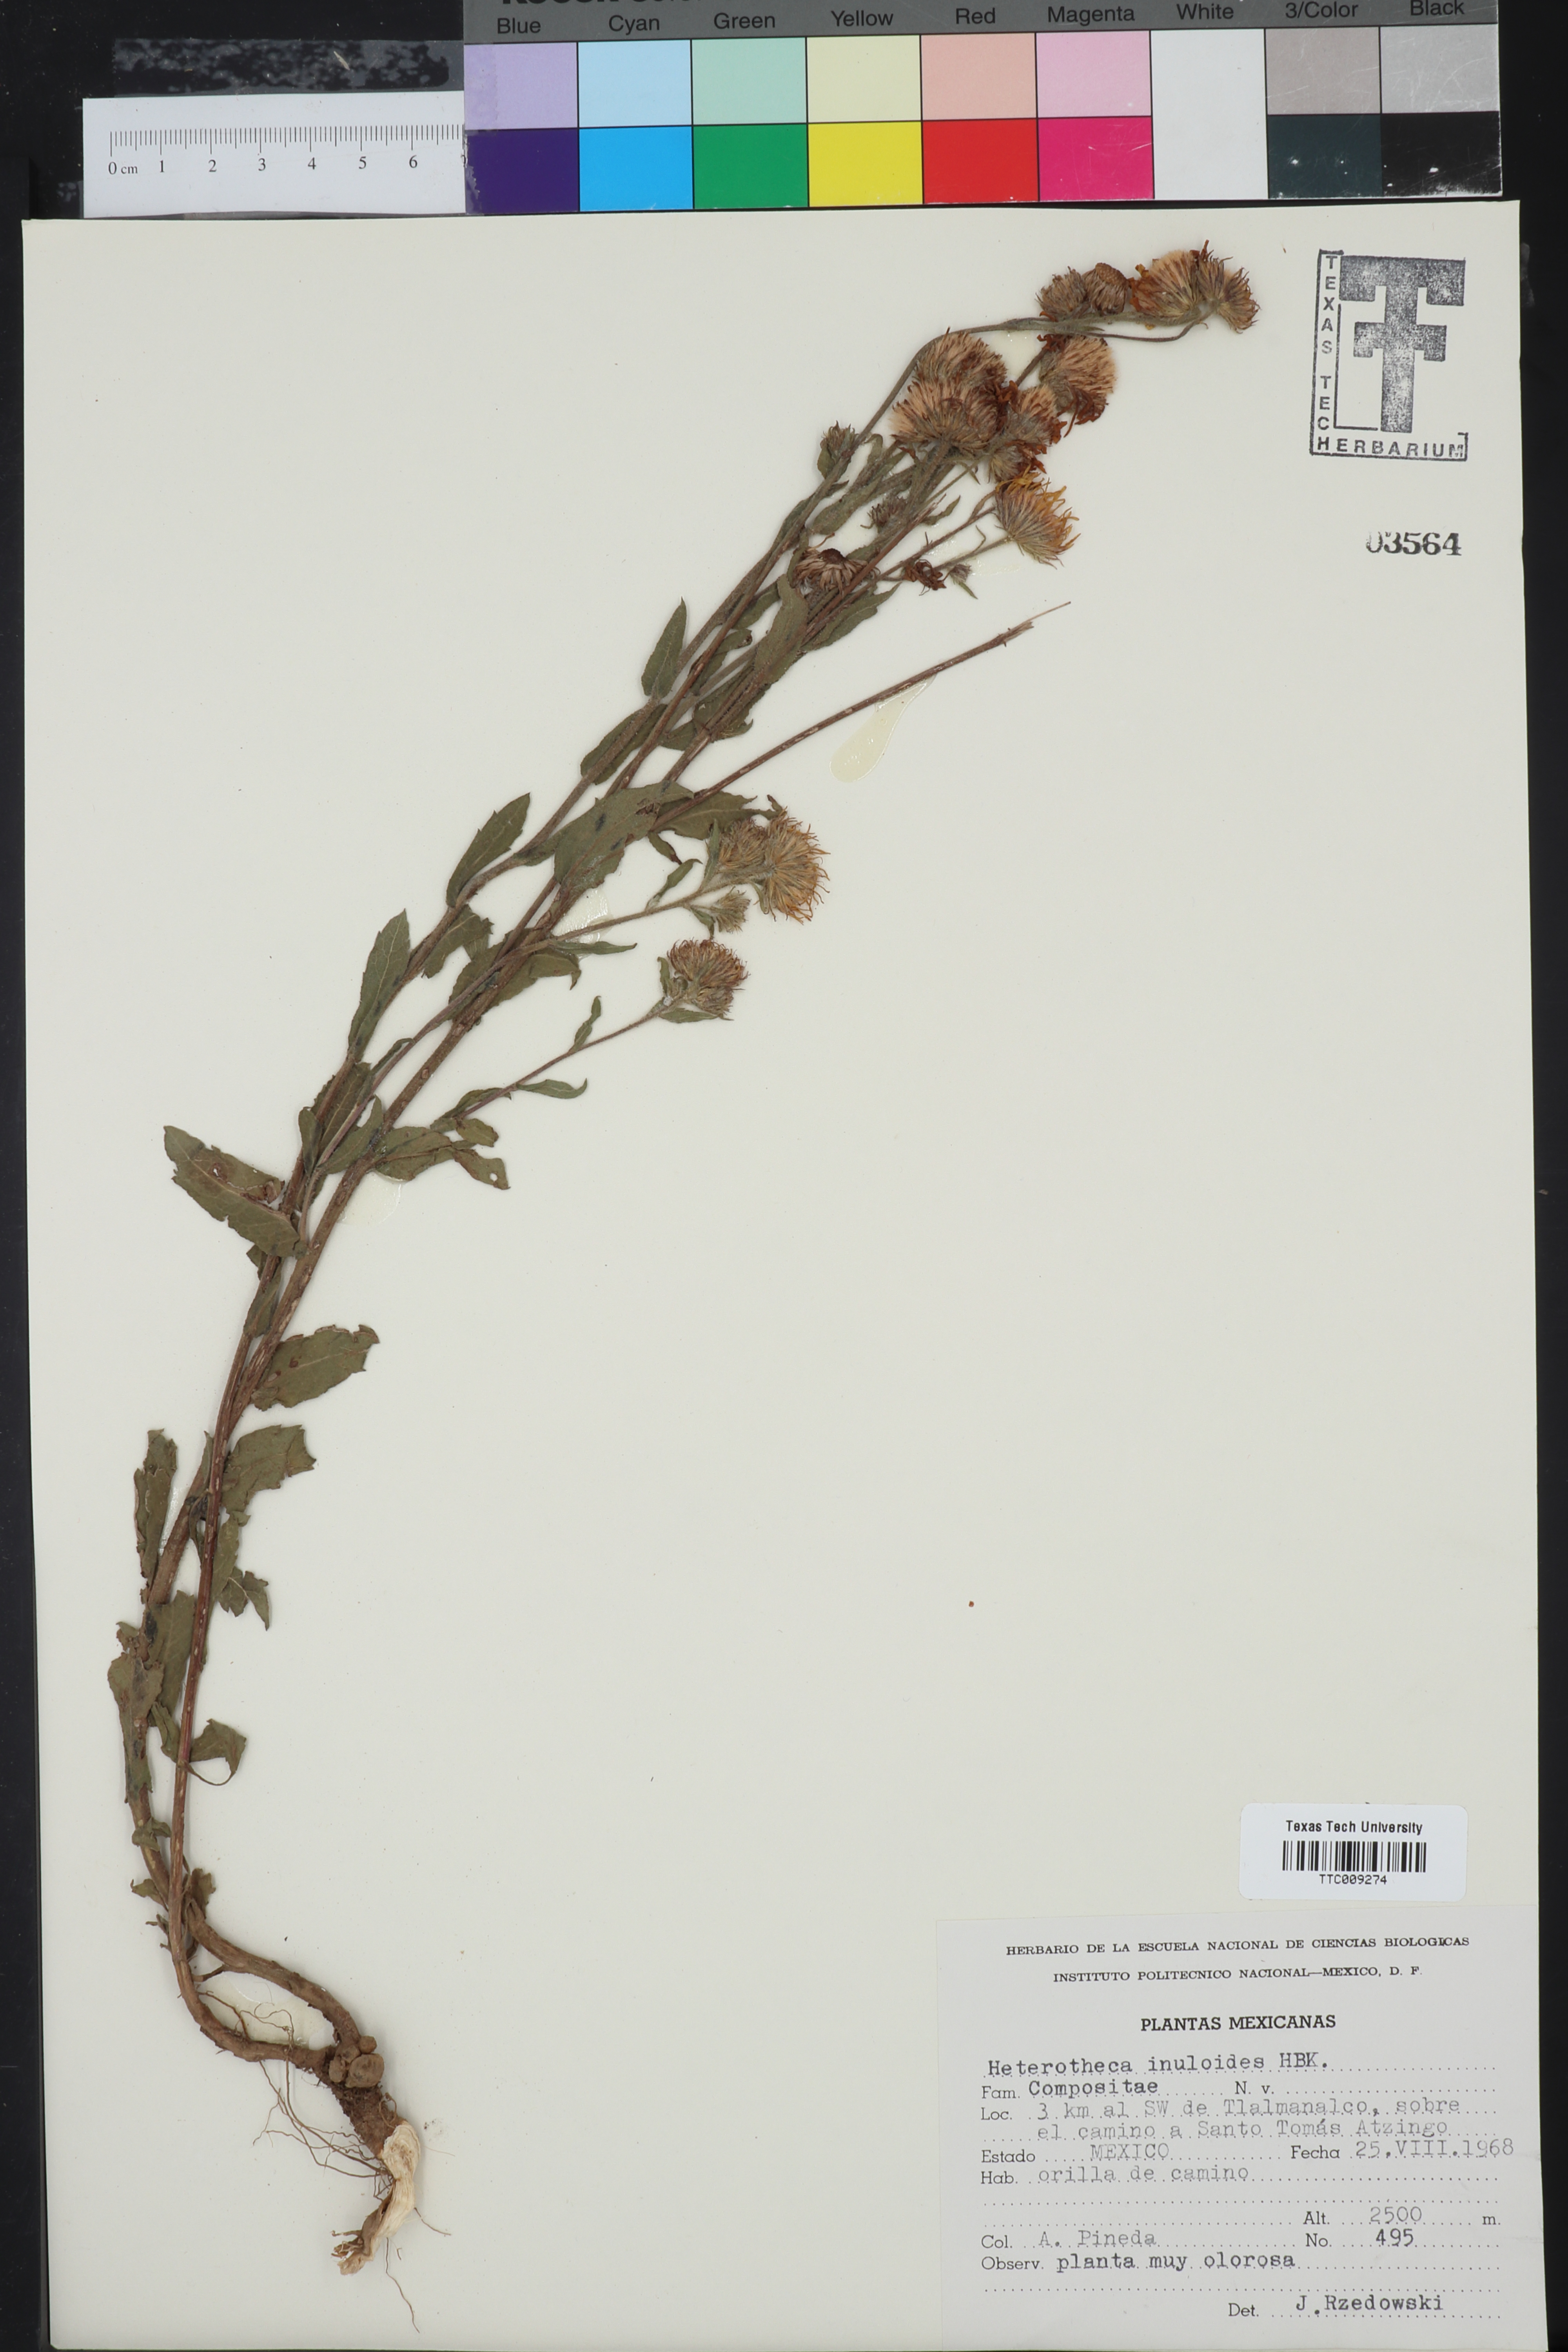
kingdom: Plantae
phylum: Tracheophyta
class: Magnoliopsida
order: Asterales
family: Asteraceae
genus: Heterotheca
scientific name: Heterotheca inuloides
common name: False arnica
